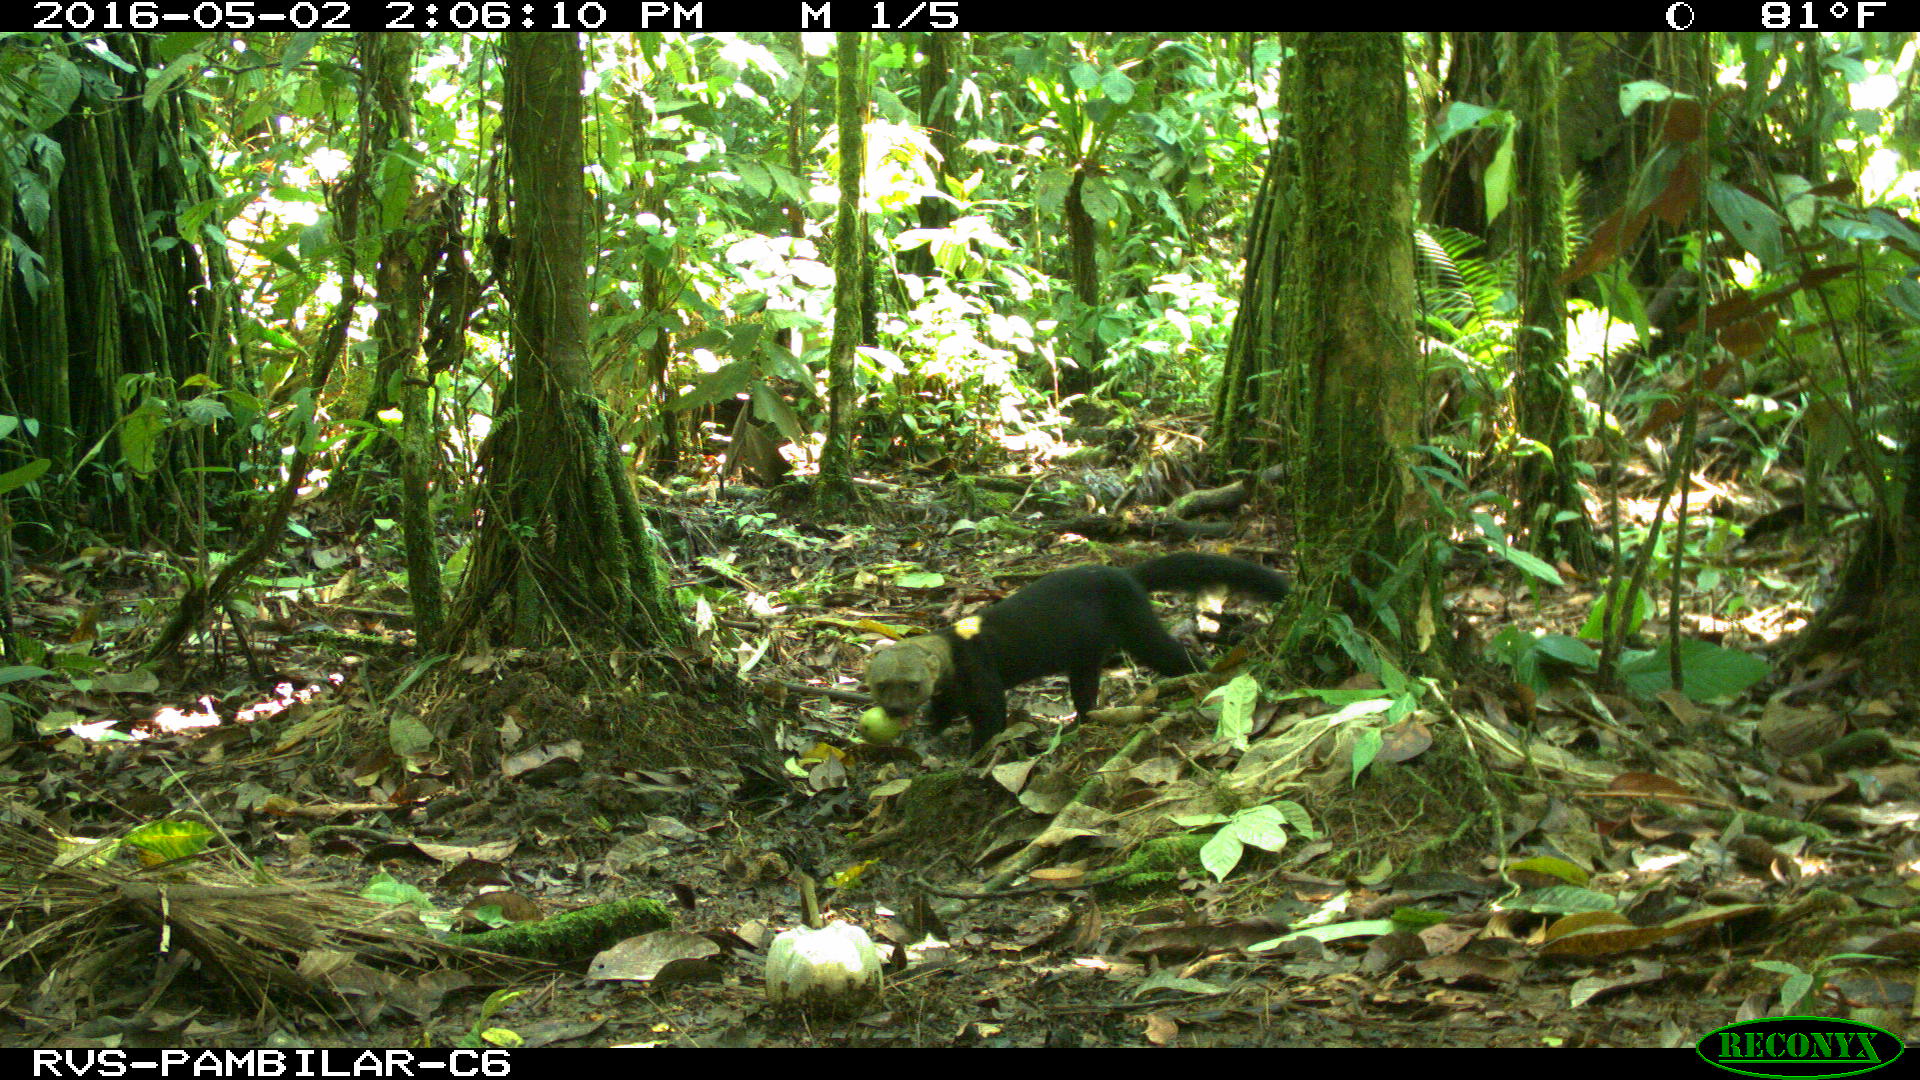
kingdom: Animalia
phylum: Chordata
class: Mammalia
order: Carnivora
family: Mustelidae
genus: Eira
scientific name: Eira barbara
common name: Tayra
